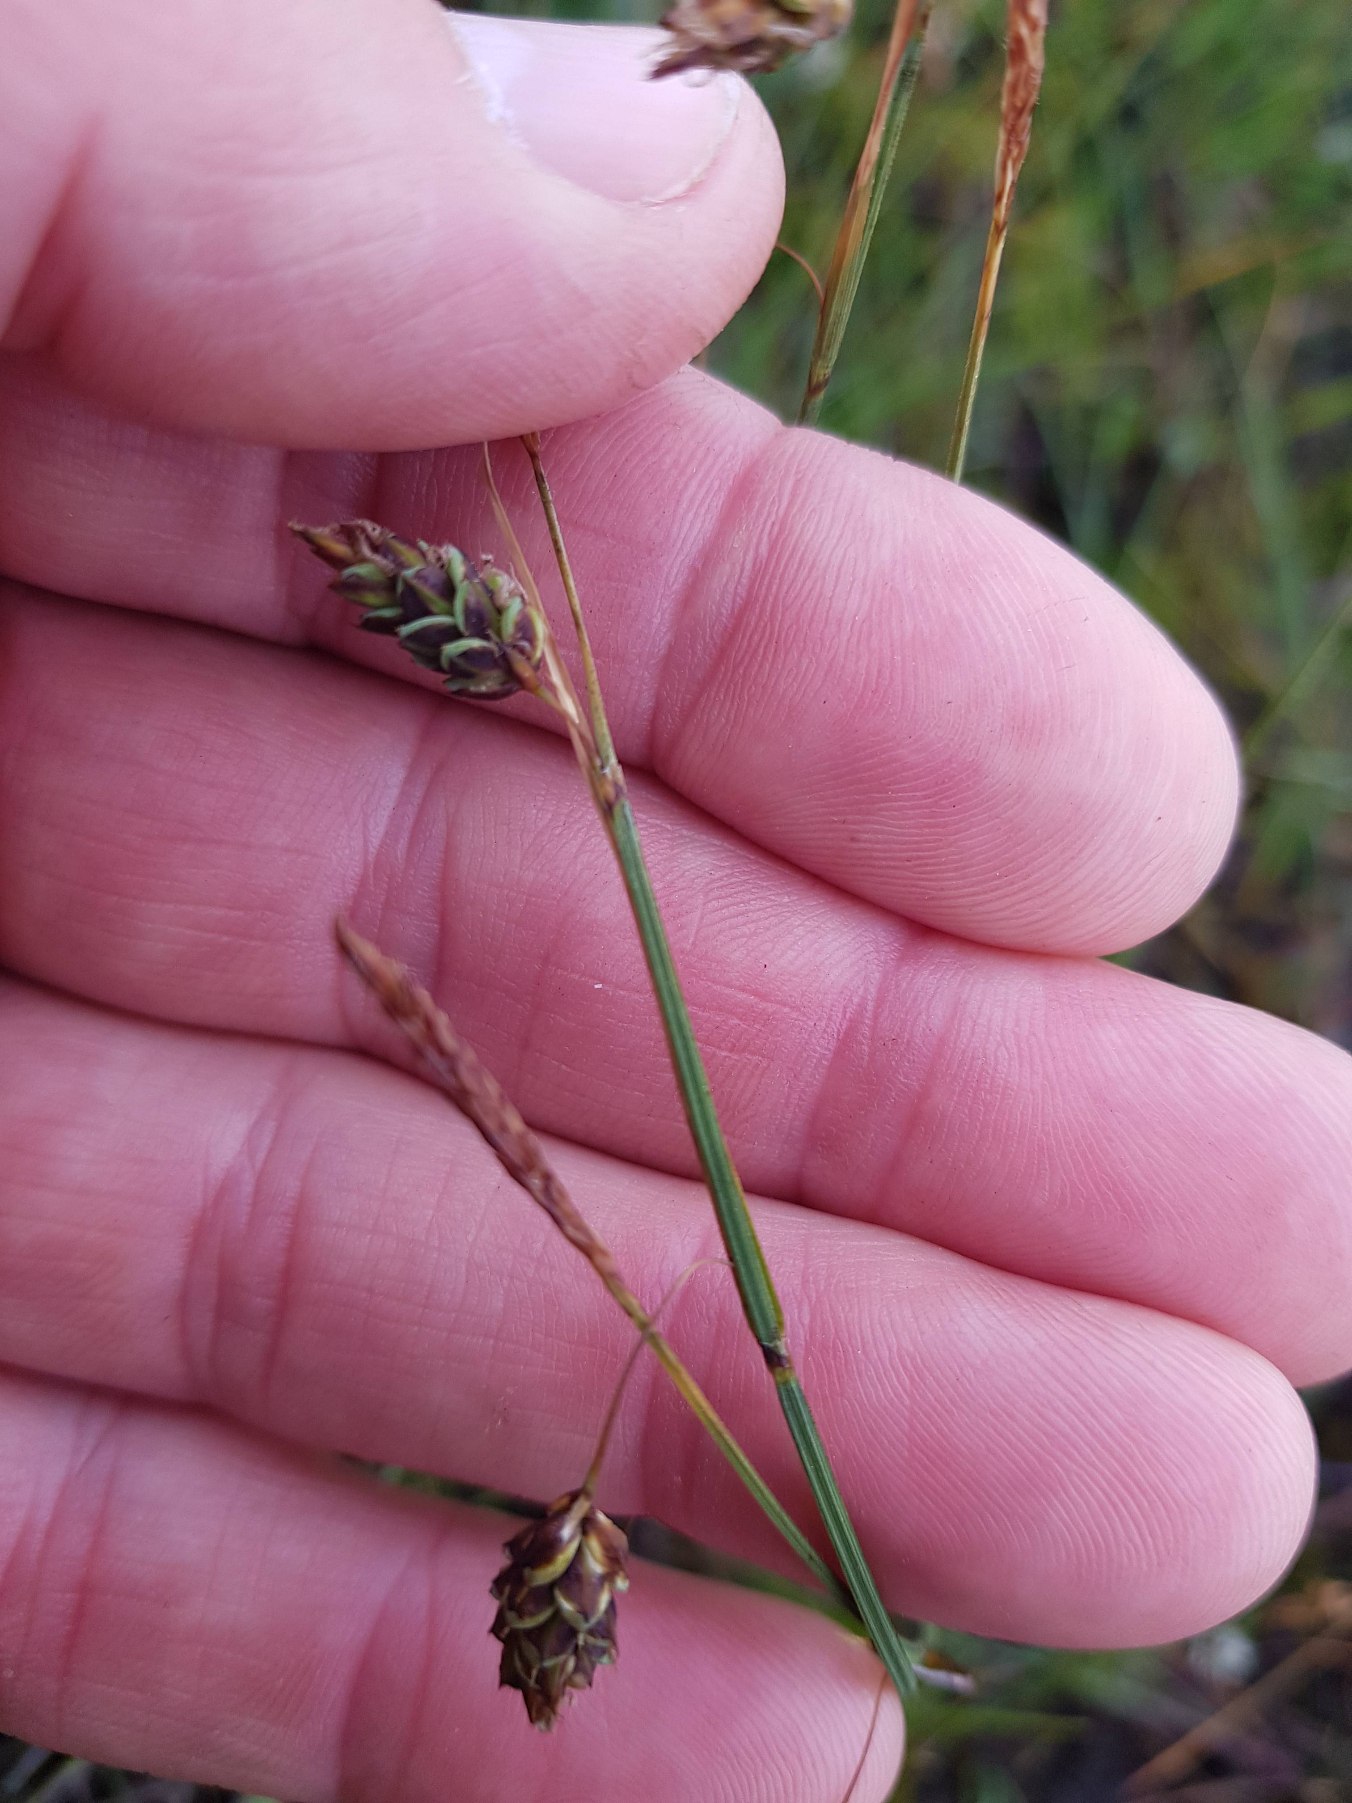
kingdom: Plantae
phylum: Tracheophyta
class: Liliopsida
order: Poales
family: Cyperaceae
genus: Carex
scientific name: Carex limosa
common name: Dynd-star
